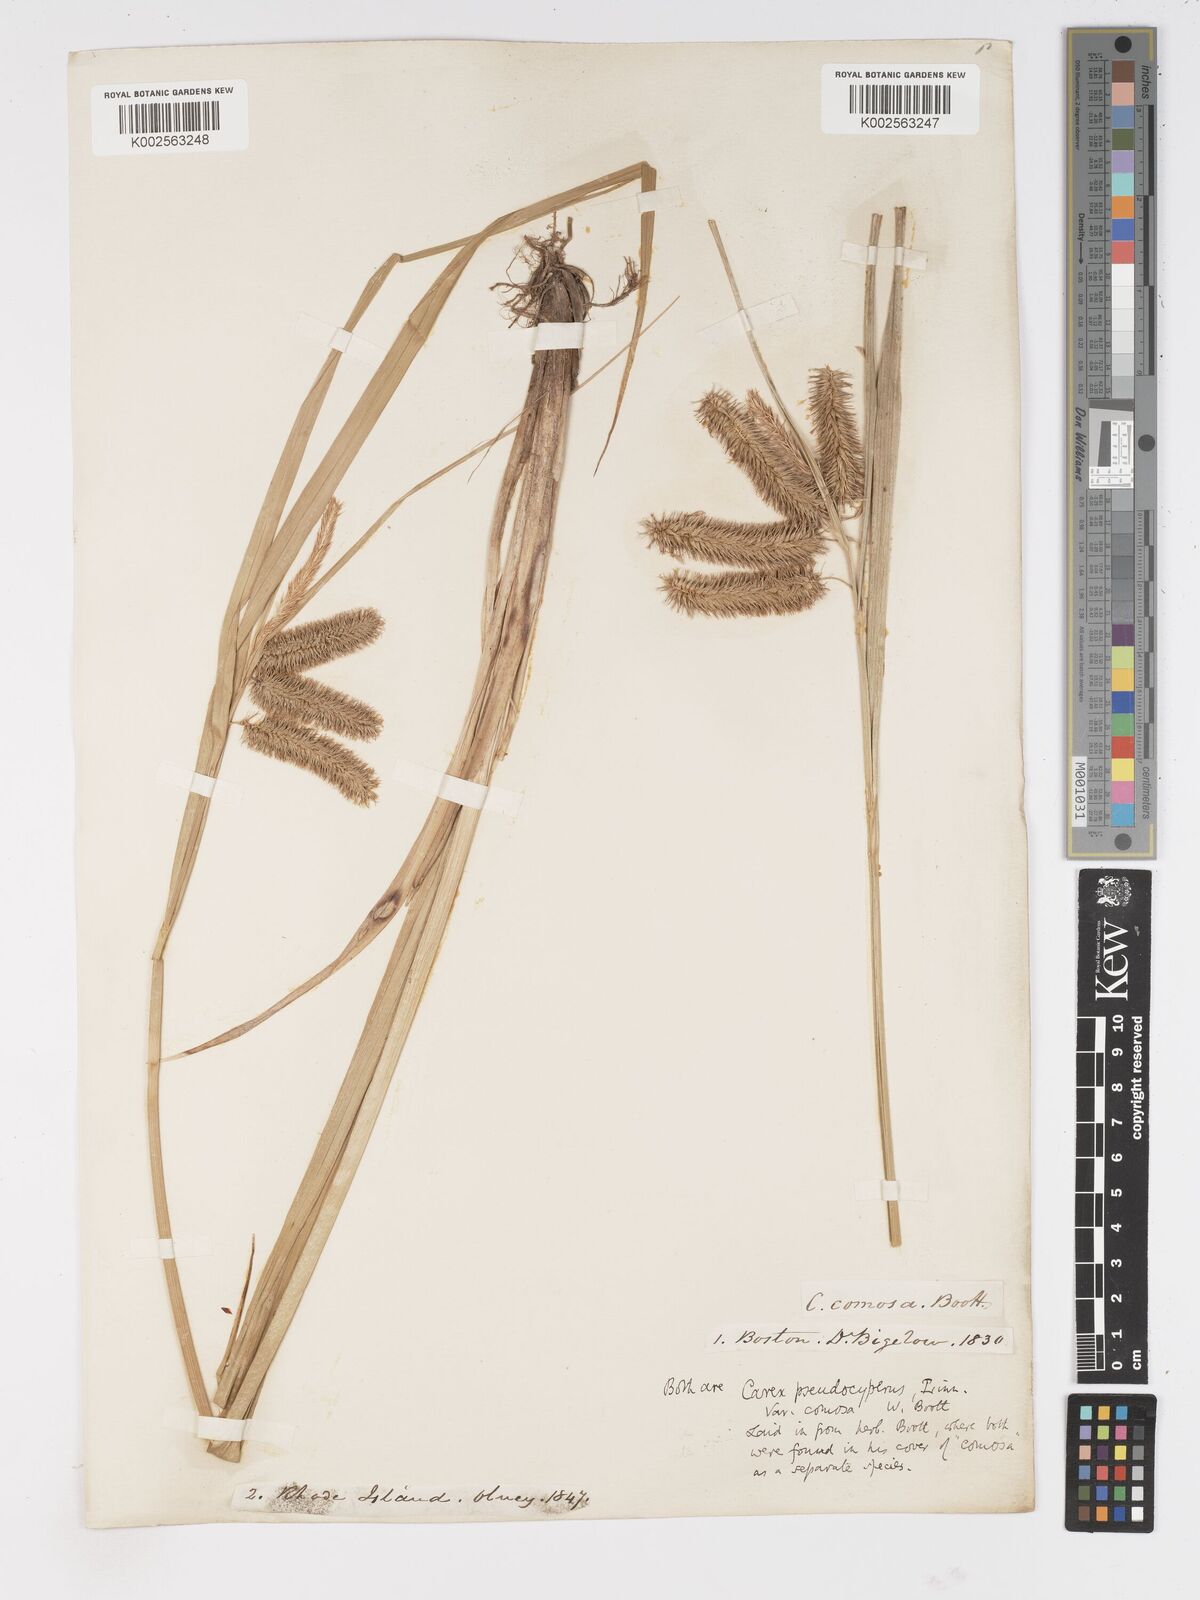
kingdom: Plantae
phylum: Tracheophyta
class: Liliopsida
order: Poales
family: Cyperaceae
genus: Carex
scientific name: Carex comosa
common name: Bristly sedge
